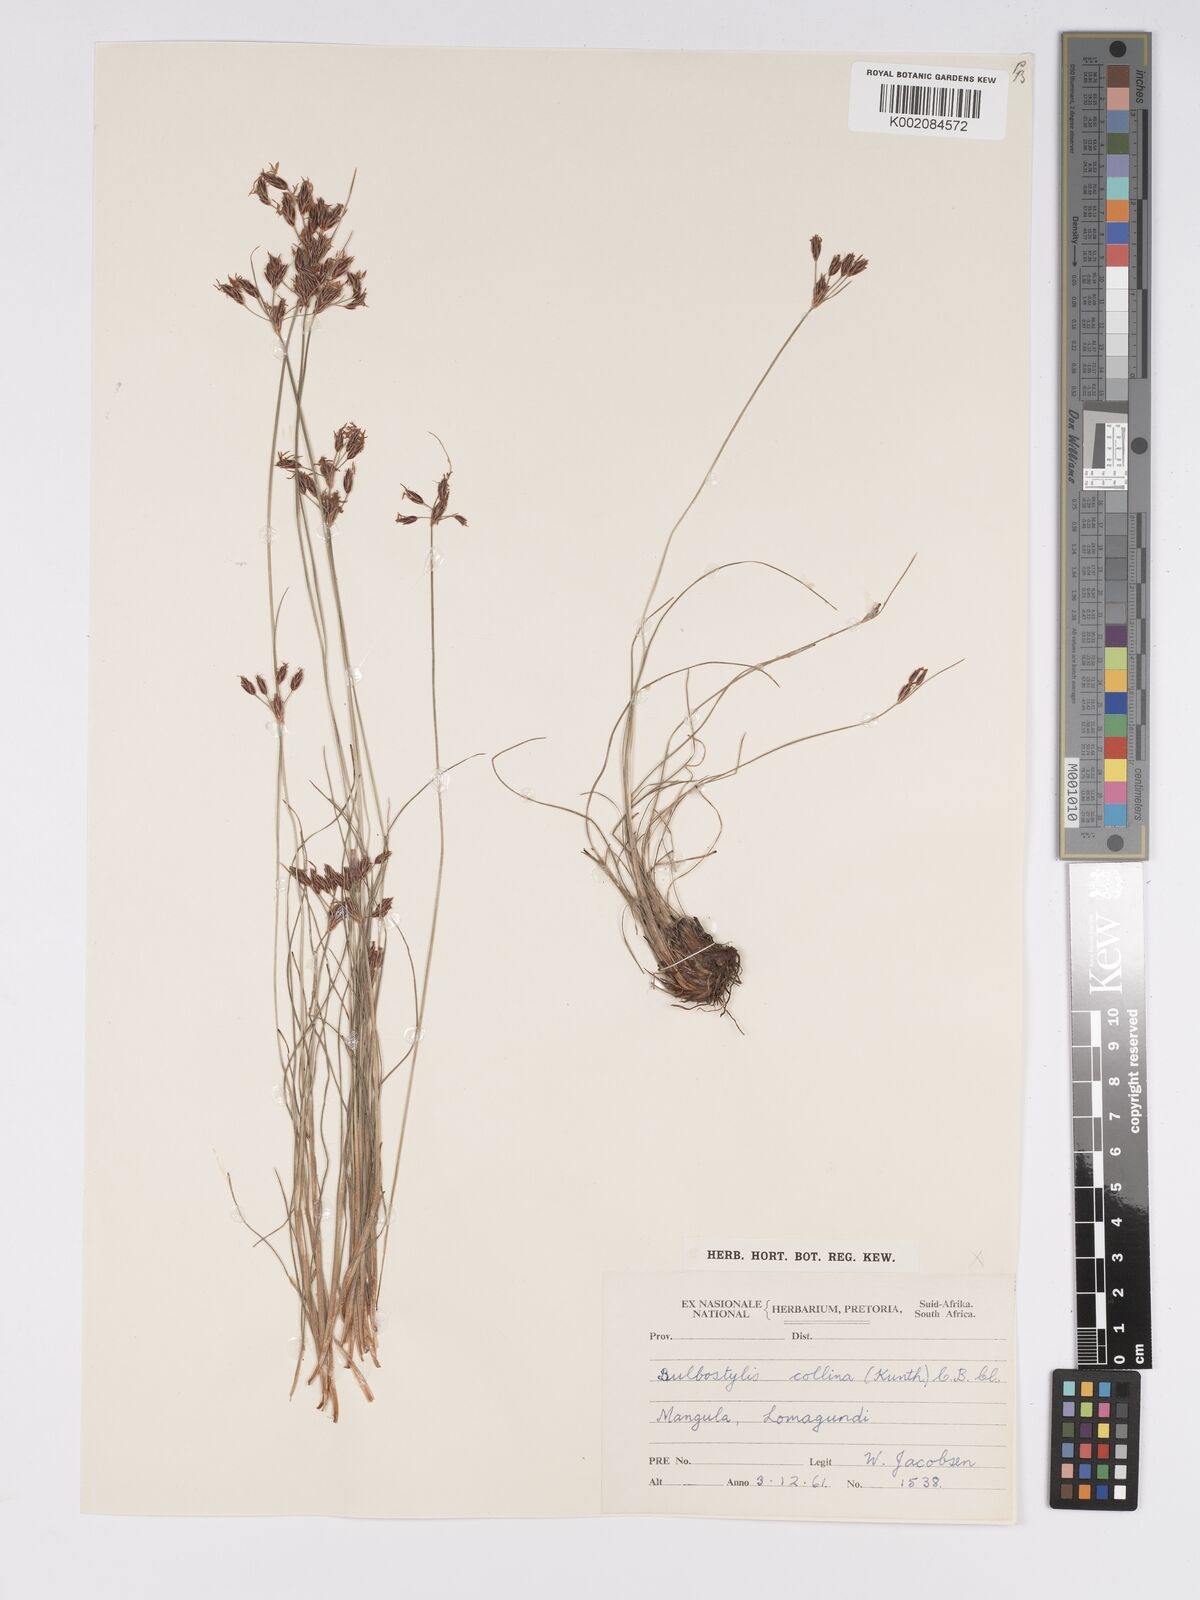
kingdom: Plantae
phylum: Tracheophyta
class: Liliopsida
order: Poales
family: Cyperaceae
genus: Bulbostylis
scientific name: Bulbostylis contexta
